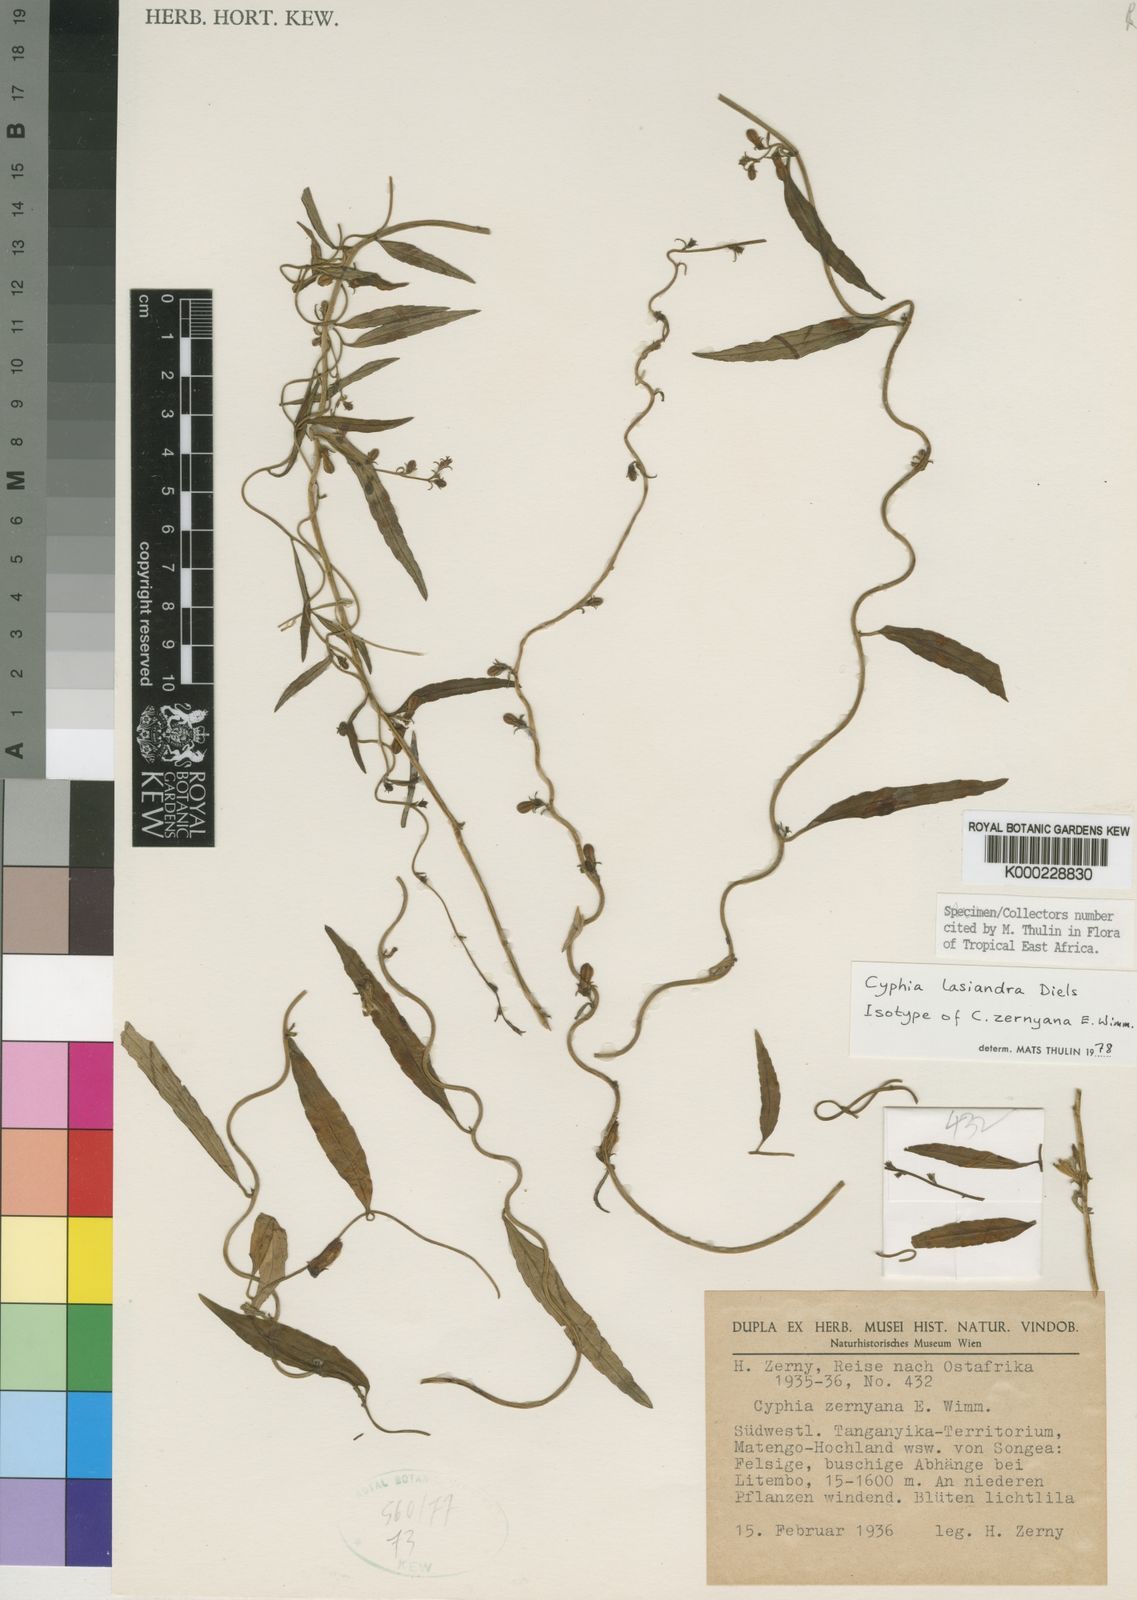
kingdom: Plantae
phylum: Tracheophyta
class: Magnoliopsida
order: Asterales
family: Campanulaceae
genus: Cyphia
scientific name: Cyphia lasiandra
